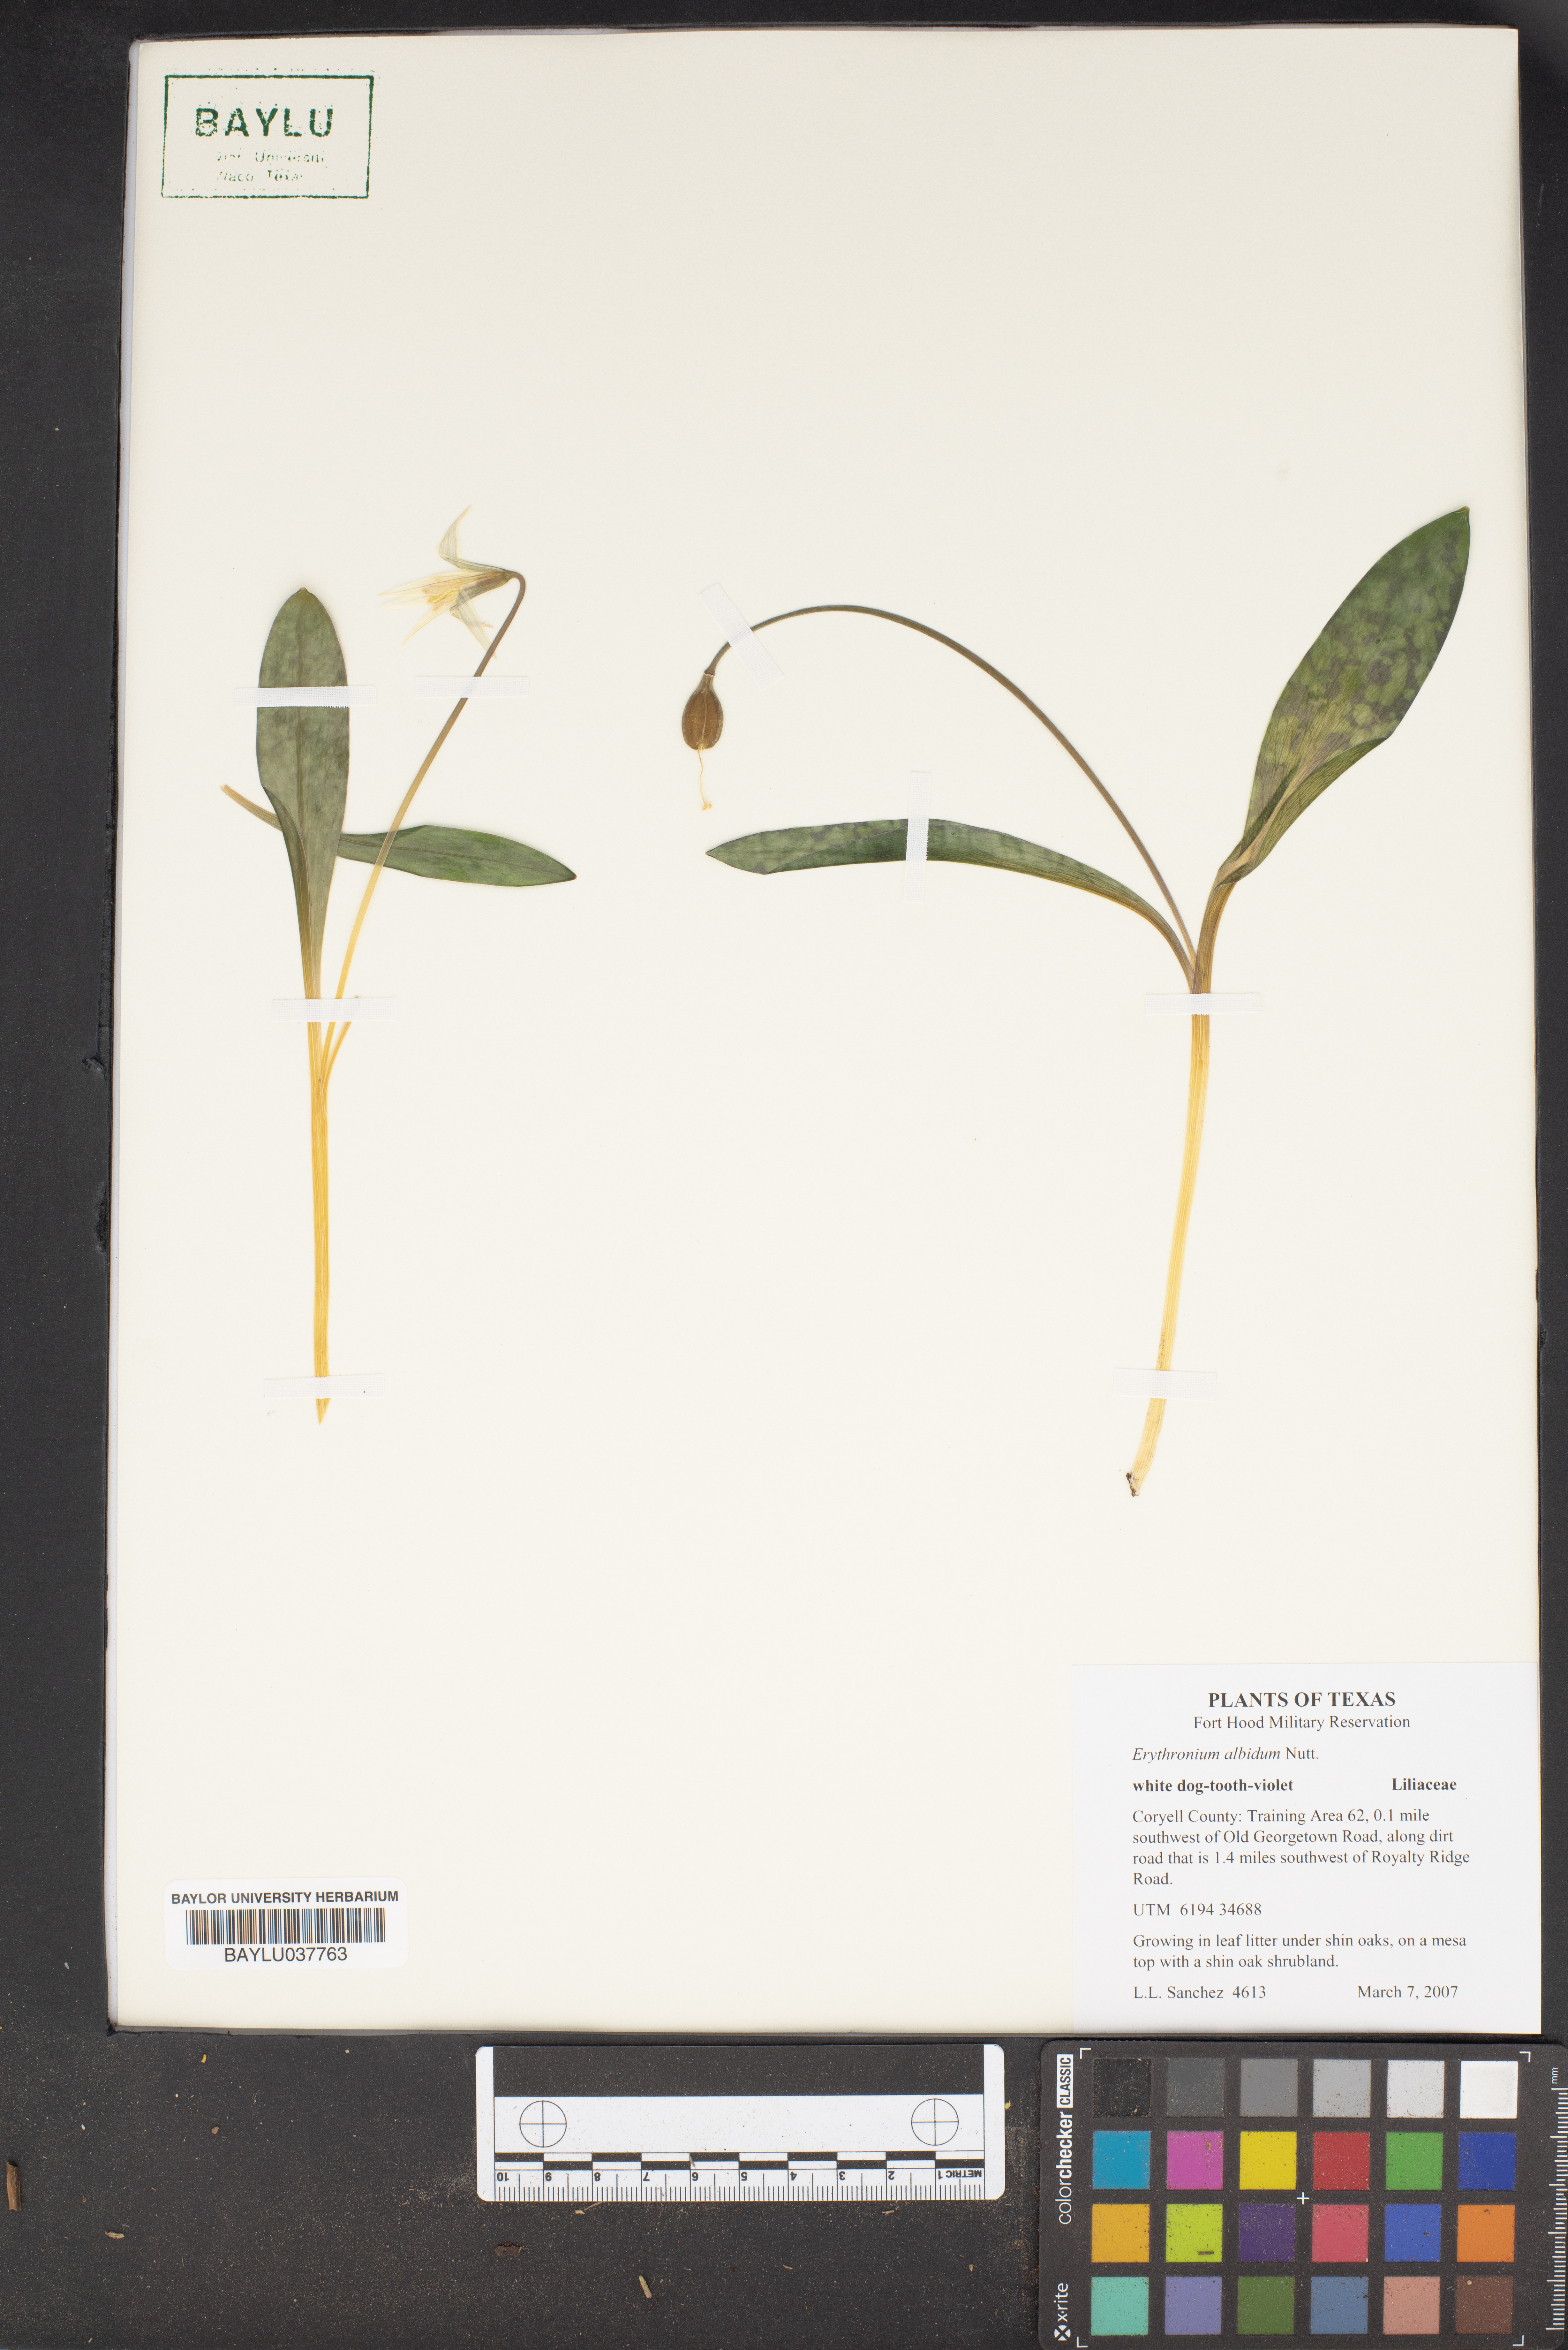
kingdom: Plantae
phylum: Tracheophyta
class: Liliopsida
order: Liliales
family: Liliaceae
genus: Erythronium
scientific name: Erythronium albidum
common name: White trout-lily
